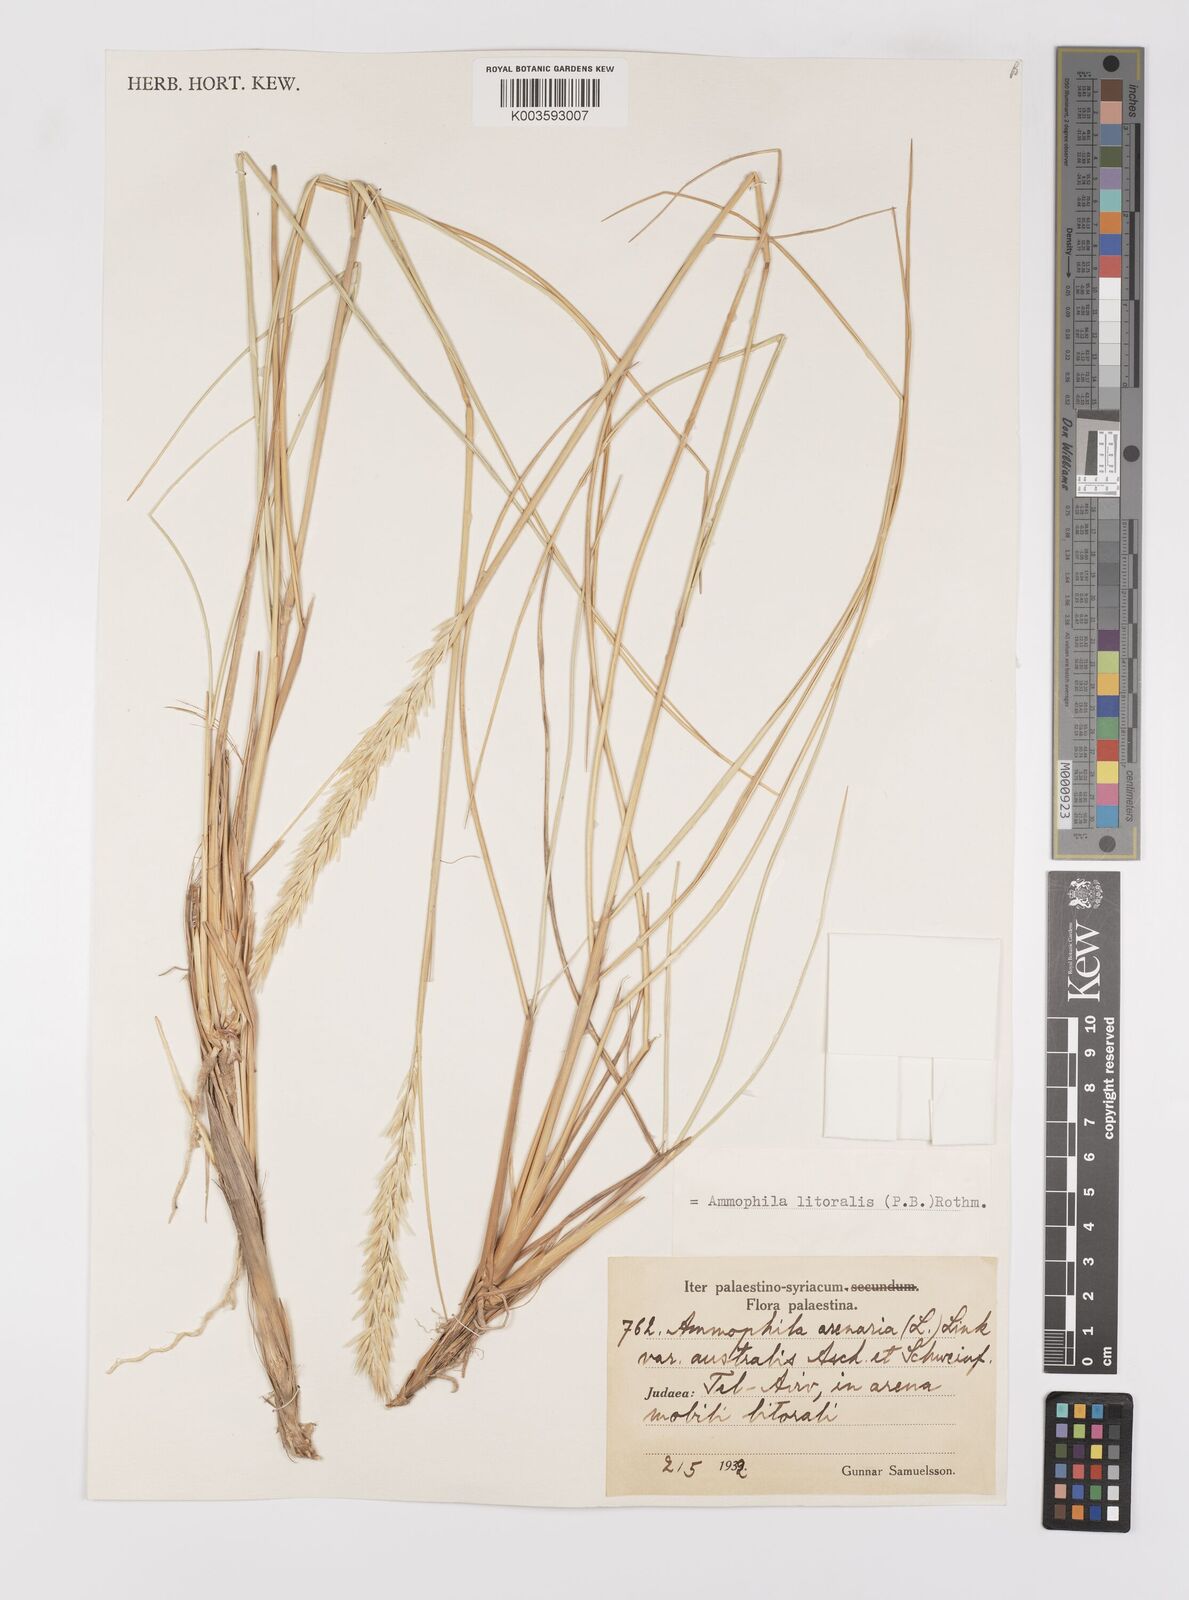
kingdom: Plantae
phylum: Tracheophyta
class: Liliopsida
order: Poales
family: Poaceae
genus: Calamagrostis
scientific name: Calamagrostis arenaria
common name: European beachgrass
